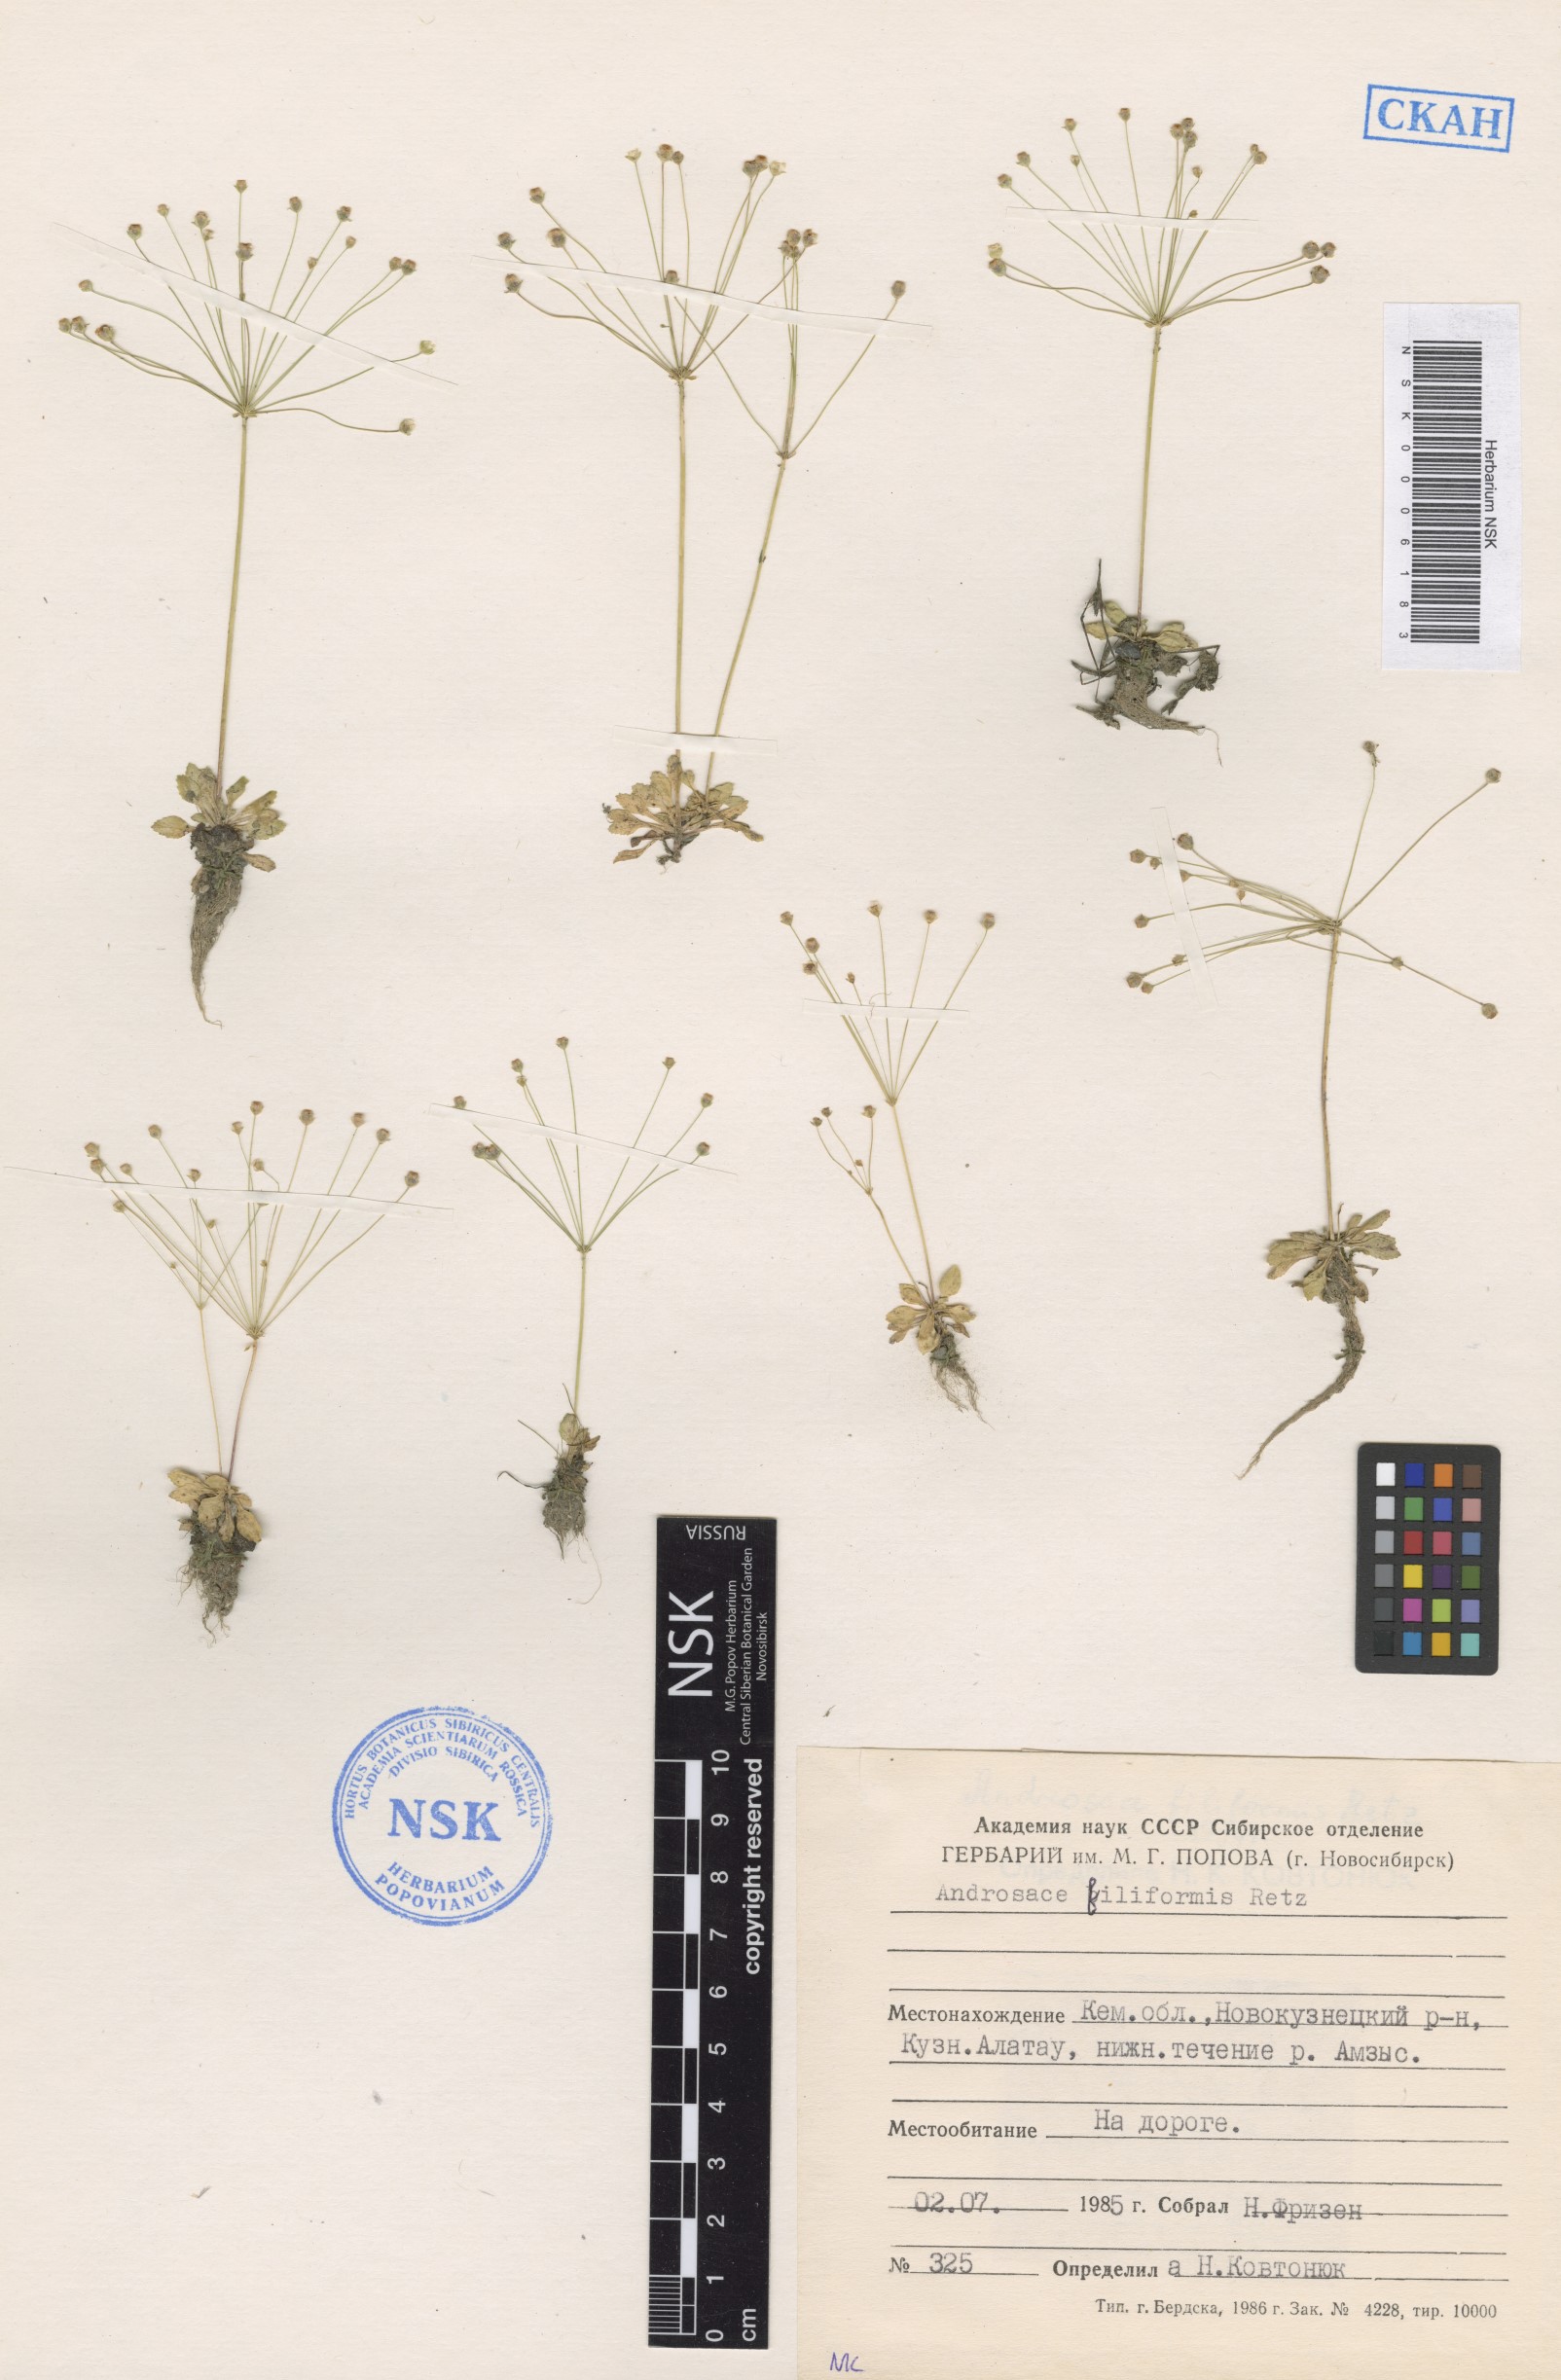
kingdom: Plantae
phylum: Tracheophyta
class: Magnoliopsida
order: Ericales
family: Primulaceae
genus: Androsace
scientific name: Androsace filiformis
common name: Filiform rock jasmine
